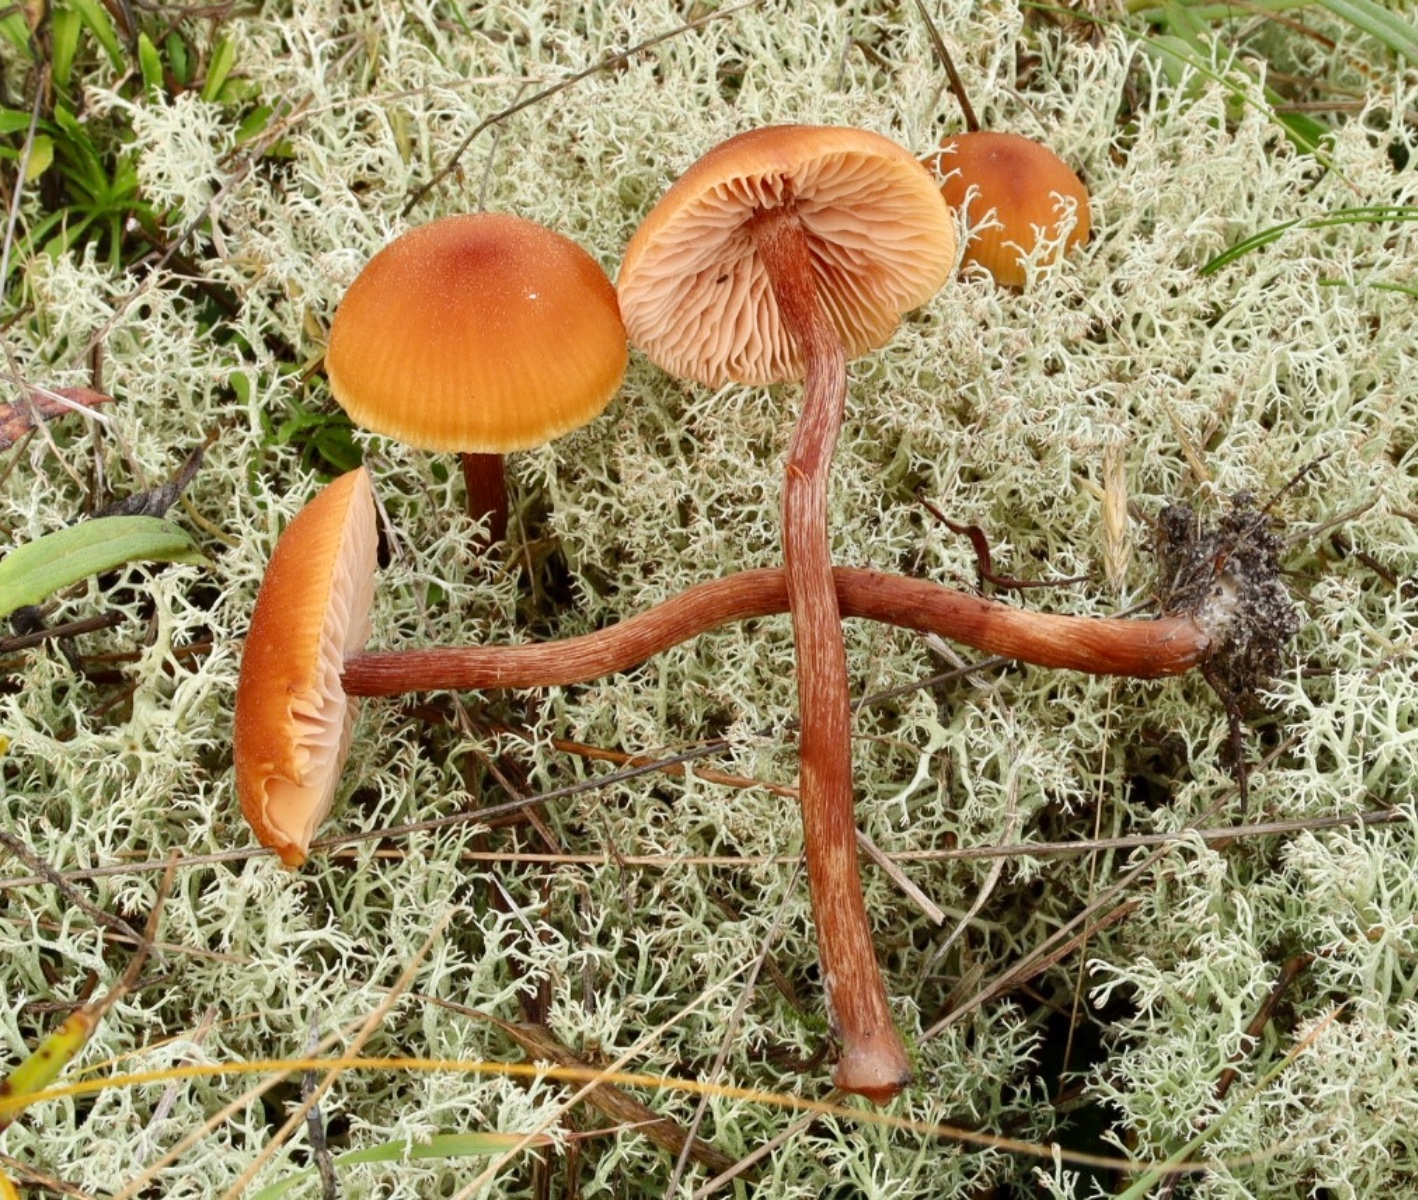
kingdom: Fungi
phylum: Basidiomycota
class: Agaricomycetes
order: Agaricales
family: Hydnangiaceae
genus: Laccaria
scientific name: Laccaria proxima
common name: stor ametysthat
